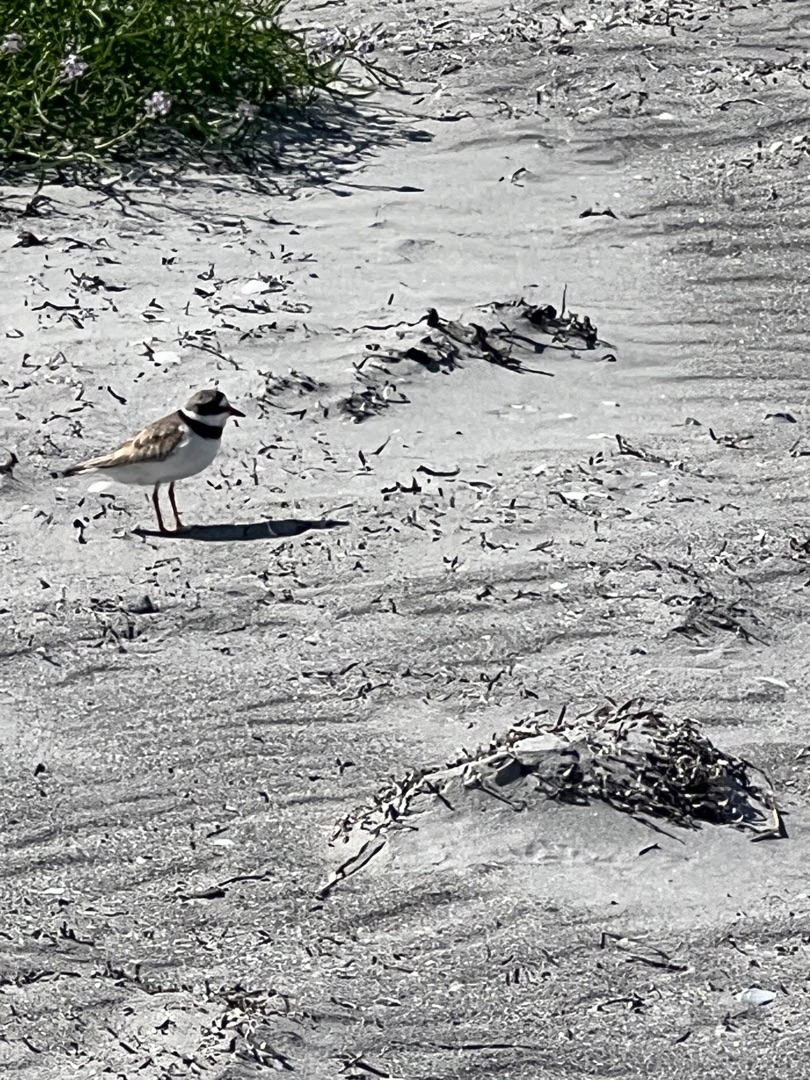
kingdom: Animalia
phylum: Chordata
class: Aves
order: Charadriiformes
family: Charadriidae
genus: Charadrius
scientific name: Charadrius hiaticula
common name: Stor præstekrave
